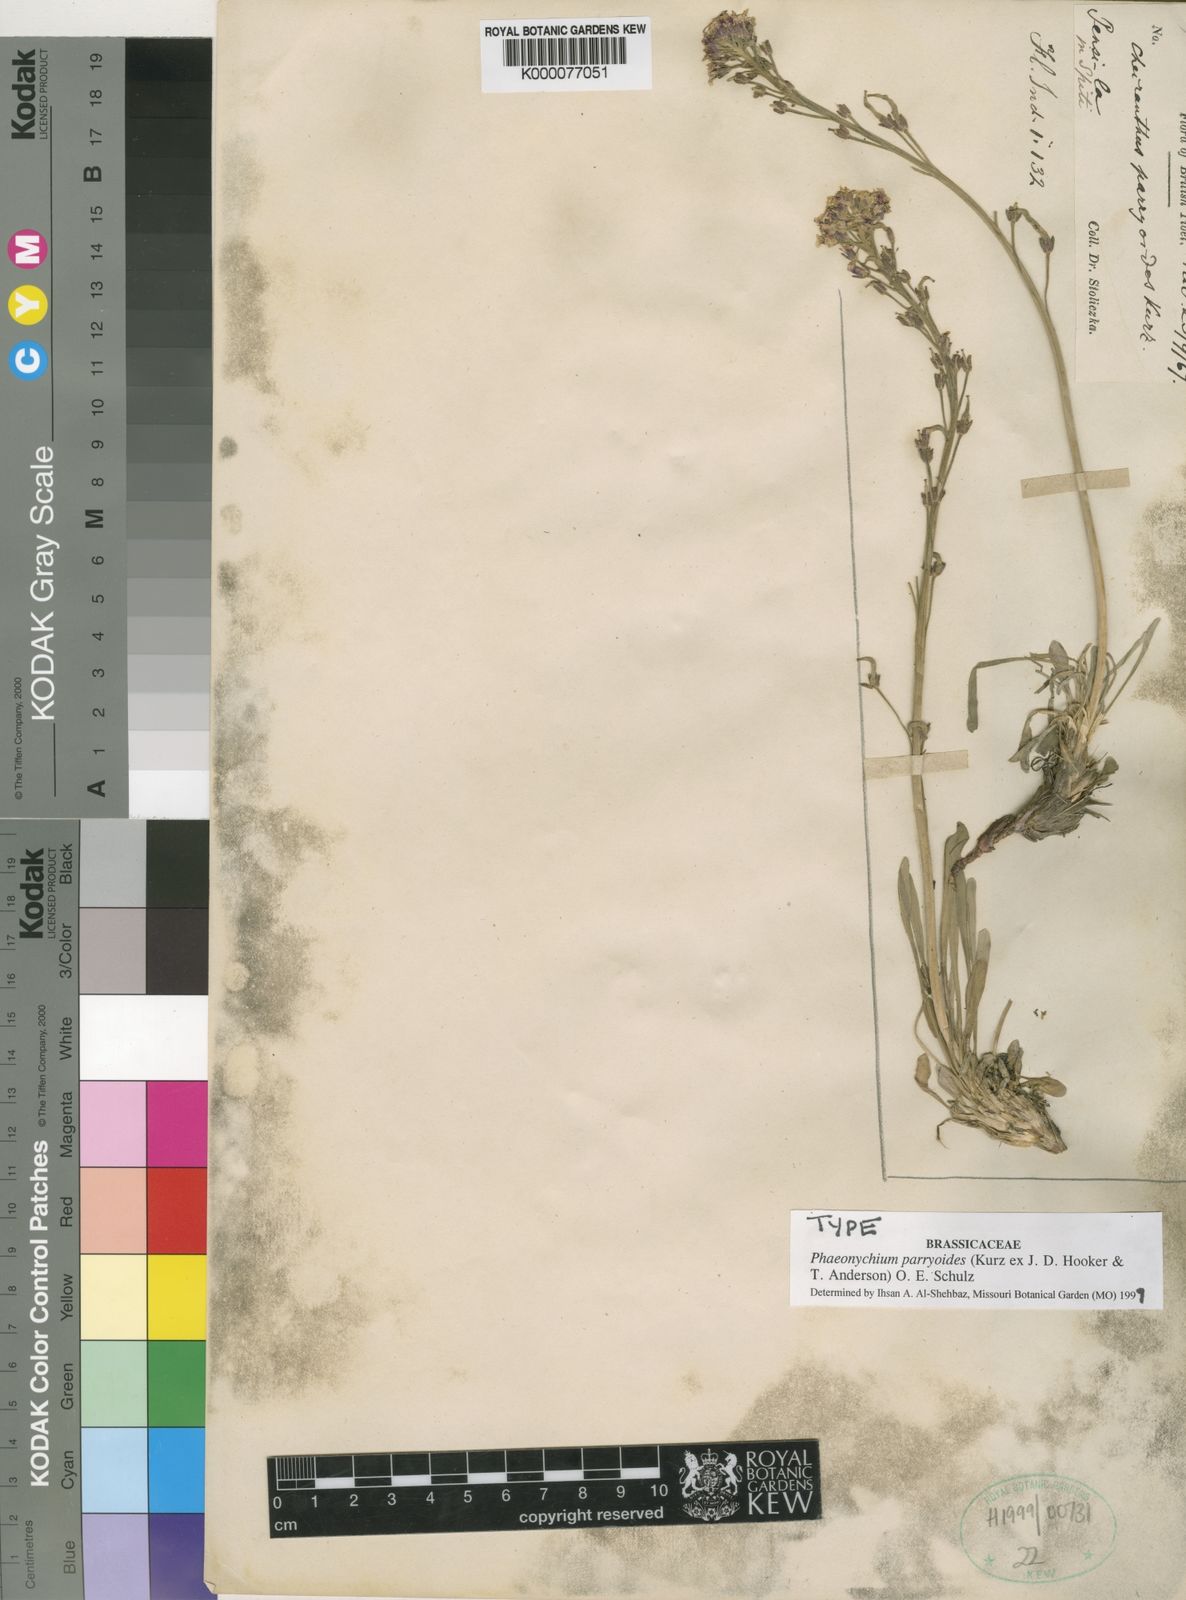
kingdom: Plantae
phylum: Tracheophyta
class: Magnoliopsida
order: Brassicales
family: Brassicaceae
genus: Solms-laubachia
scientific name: Solms-laubachia parryoides
